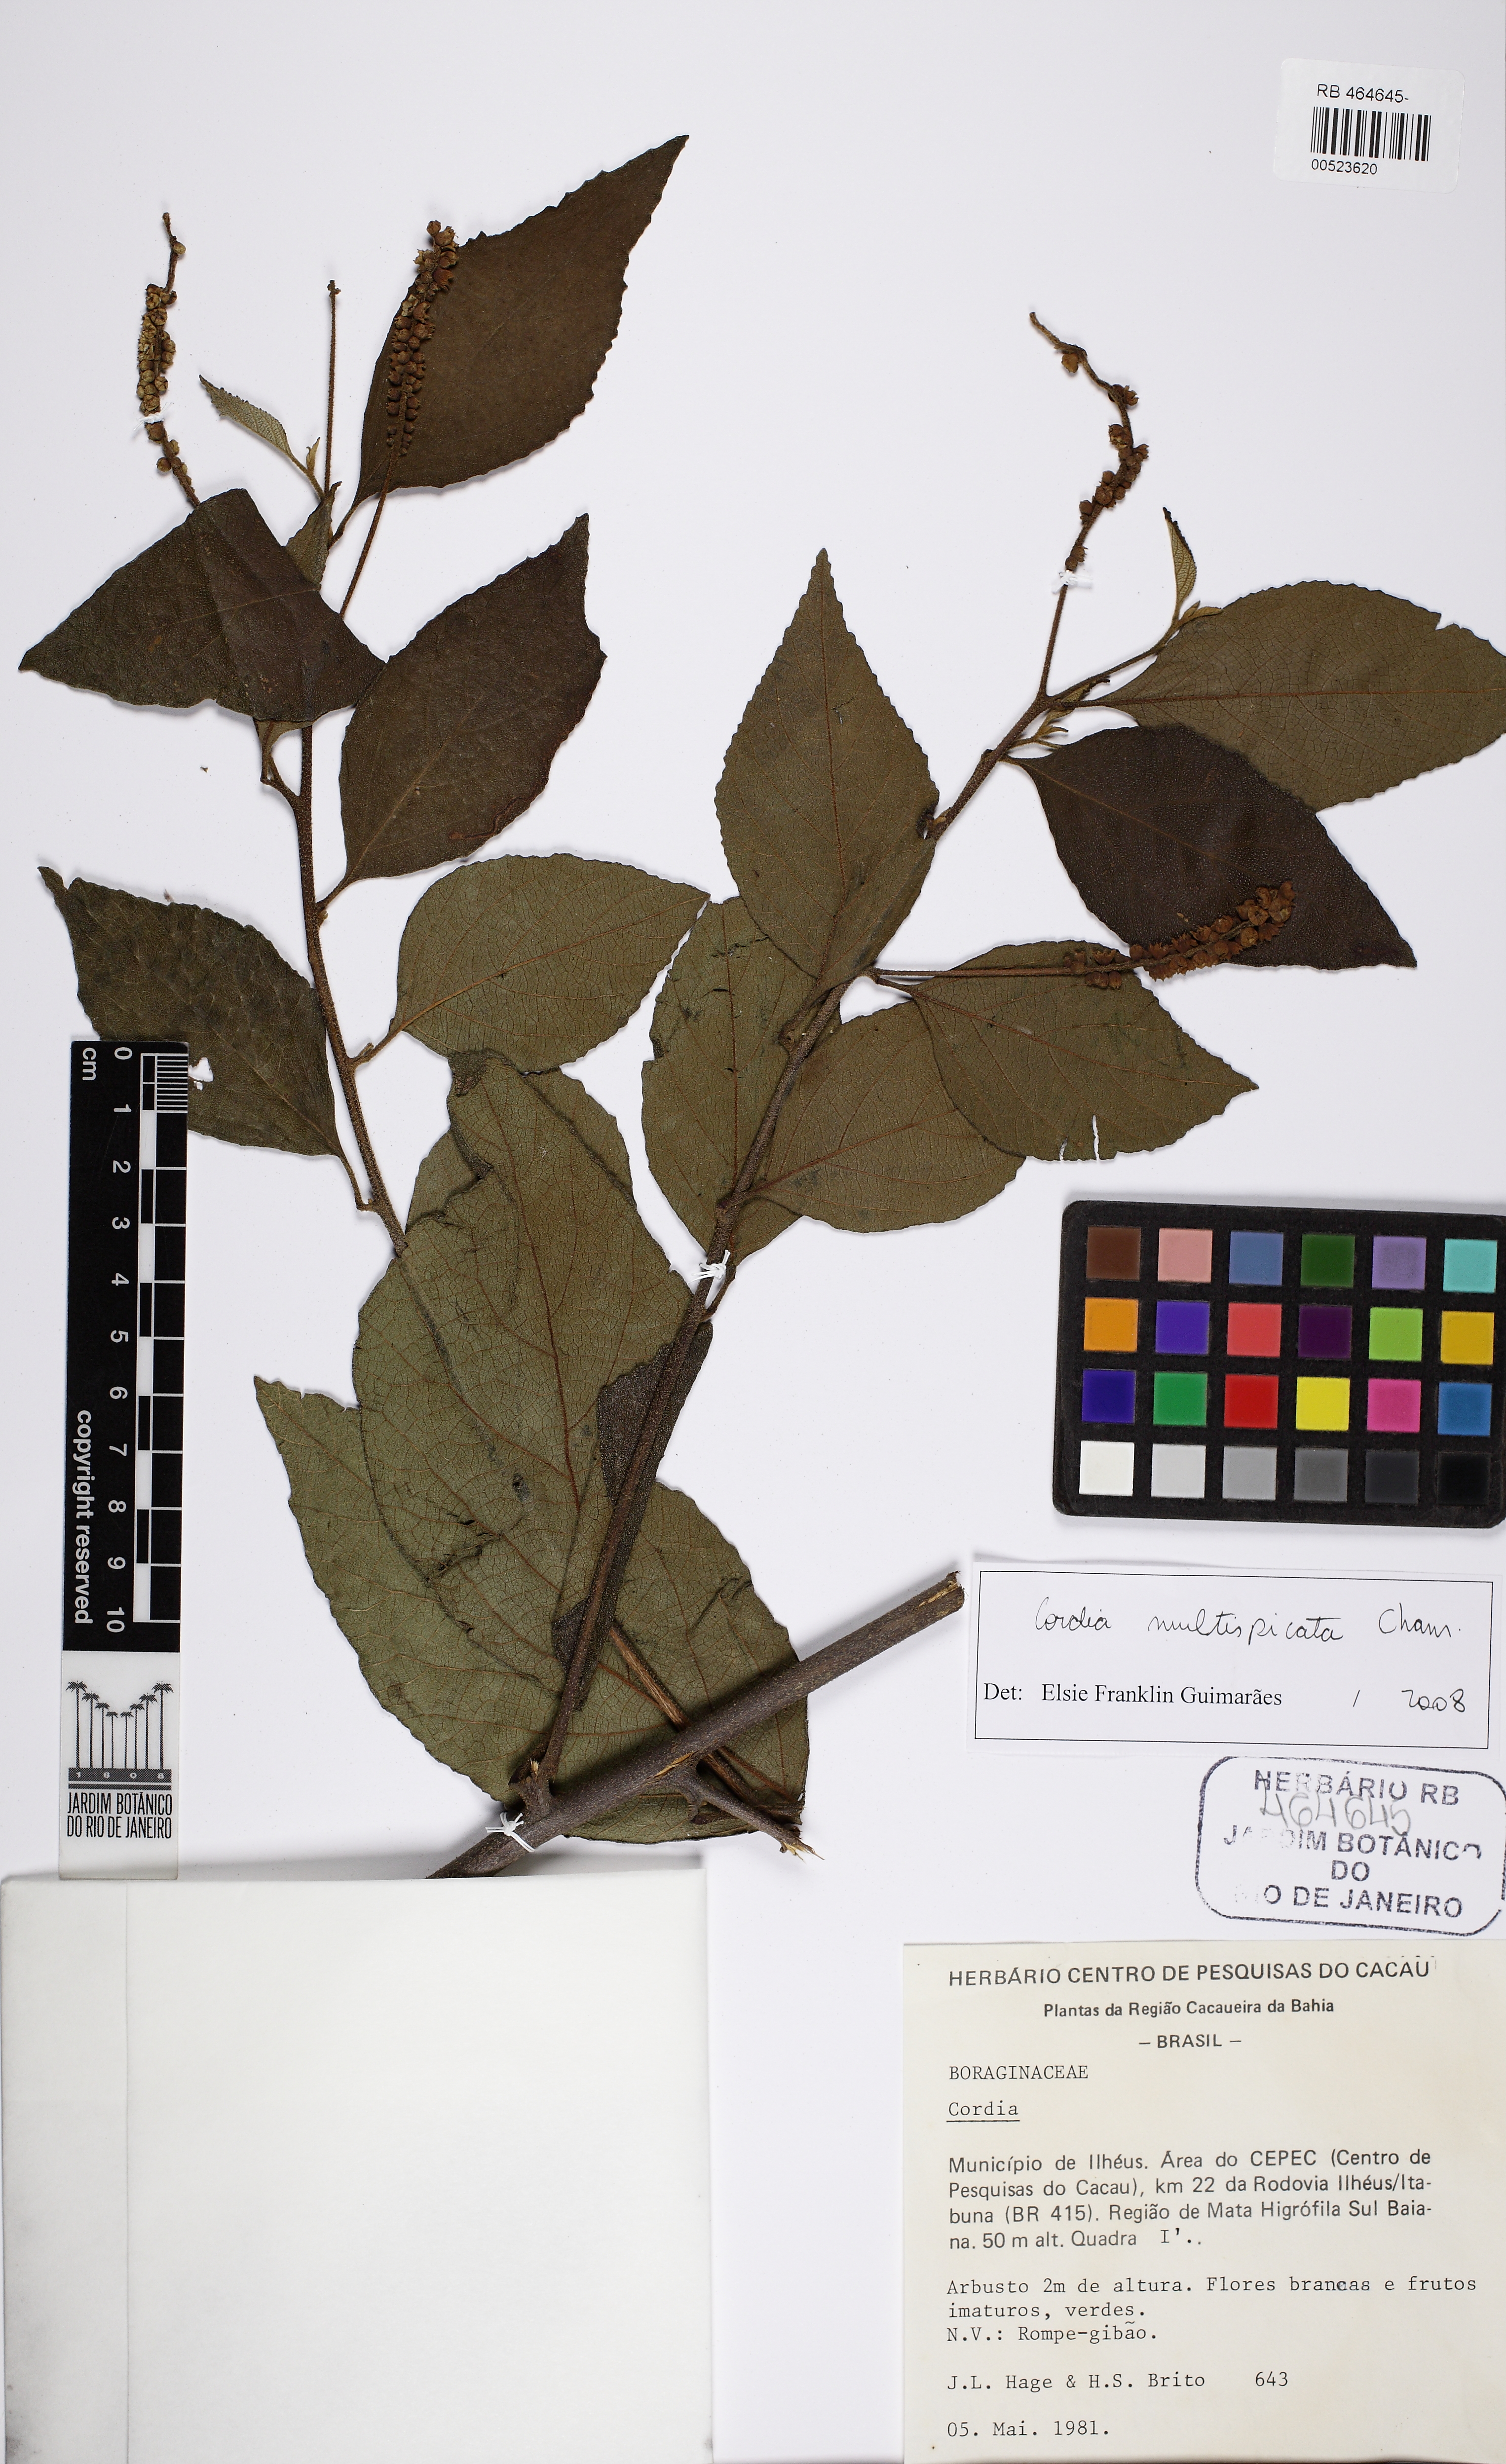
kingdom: Plantae
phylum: Tracheophyta
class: Magnoliopsida
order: Boraginales
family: Cordiaceae
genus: Varronia
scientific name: Varronia multispicata
